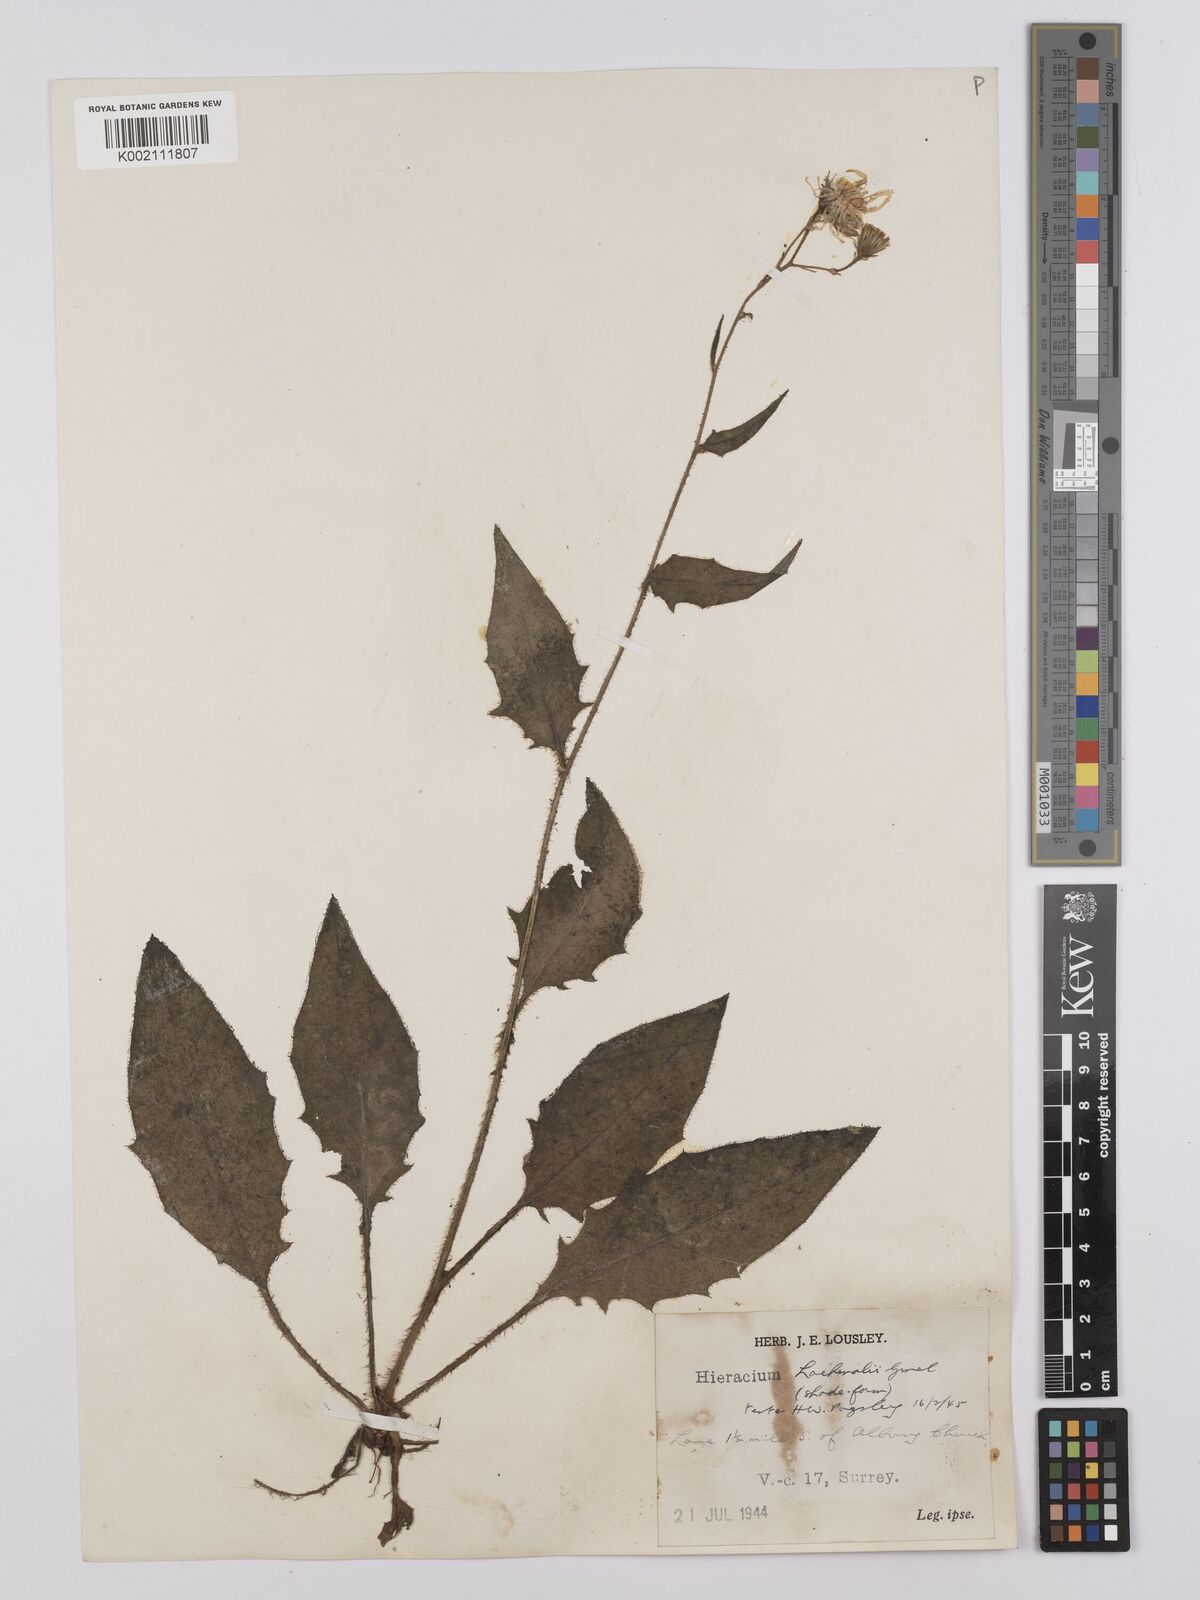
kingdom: Plantae
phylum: Tracheophyta
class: Magnoliopsida
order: Asterales
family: Asteraceae
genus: Hieracium
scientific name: Hieracium lachenalii
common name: Common hawkweed
